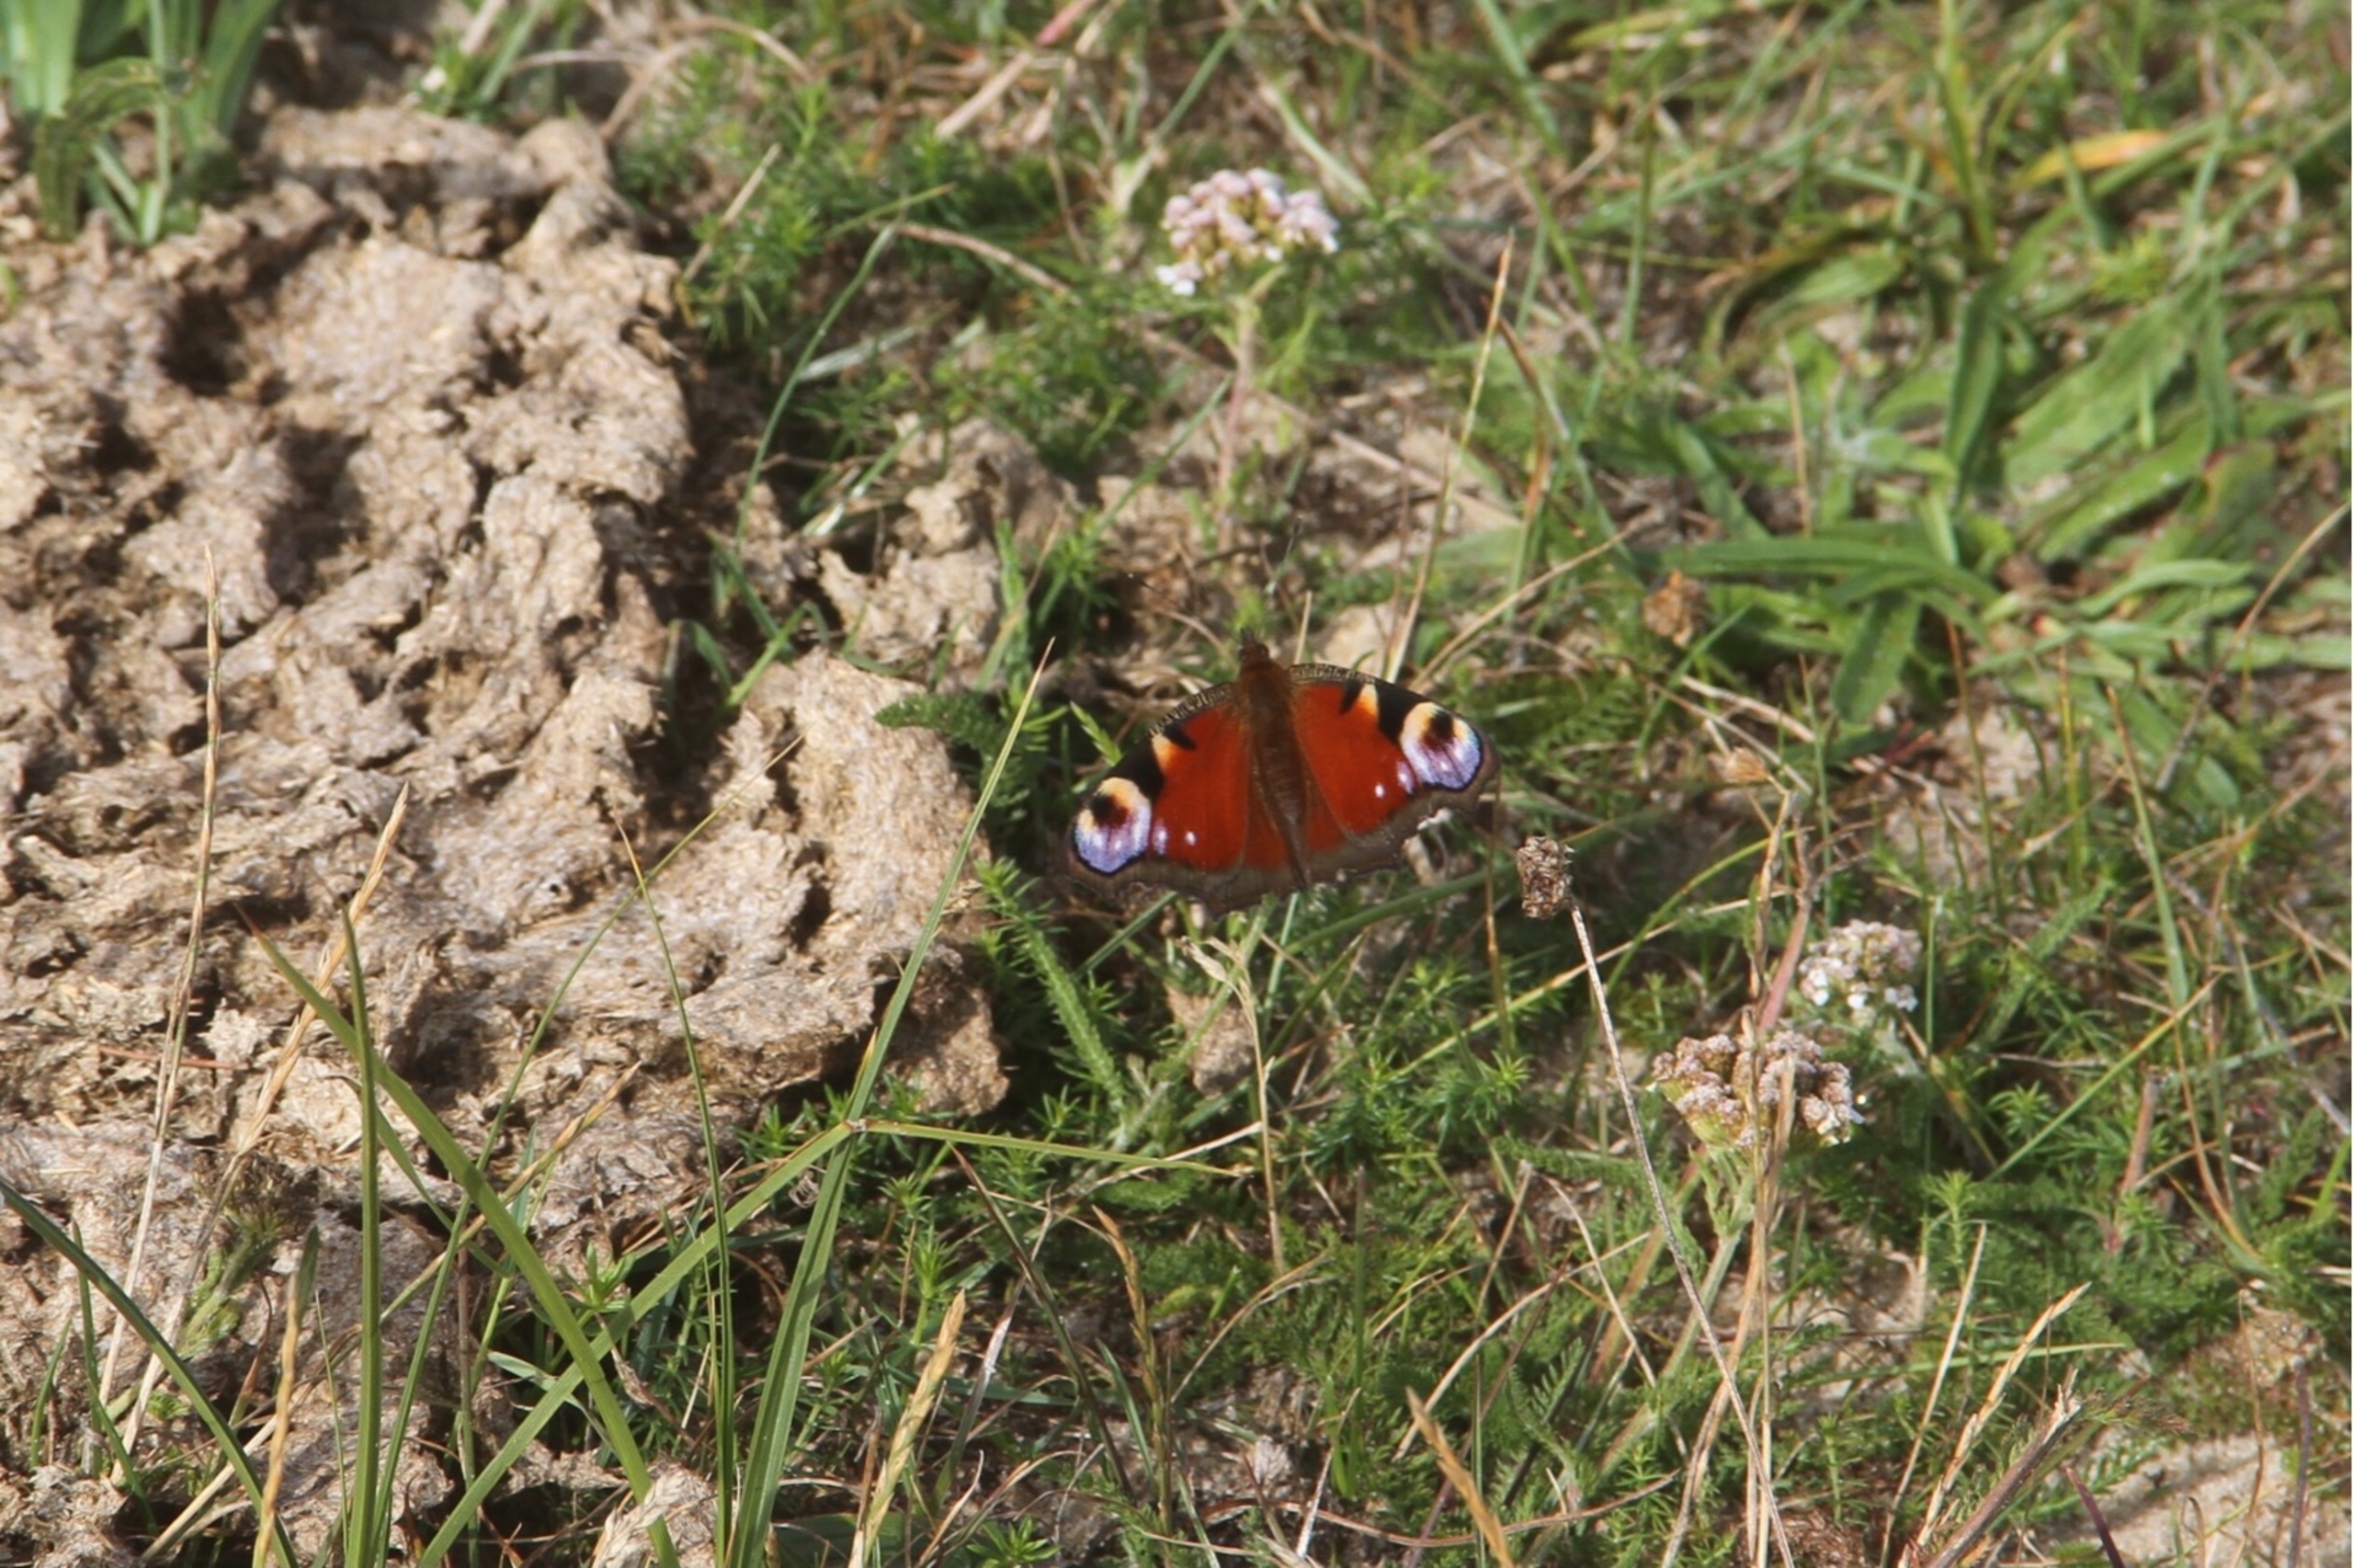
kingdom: Animalia
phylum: Arthropoda
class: Insecta
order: Lepidoptera
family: Nymphalidae
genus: Aglais
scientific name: Aglais io
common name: Dagpåfugleøje
